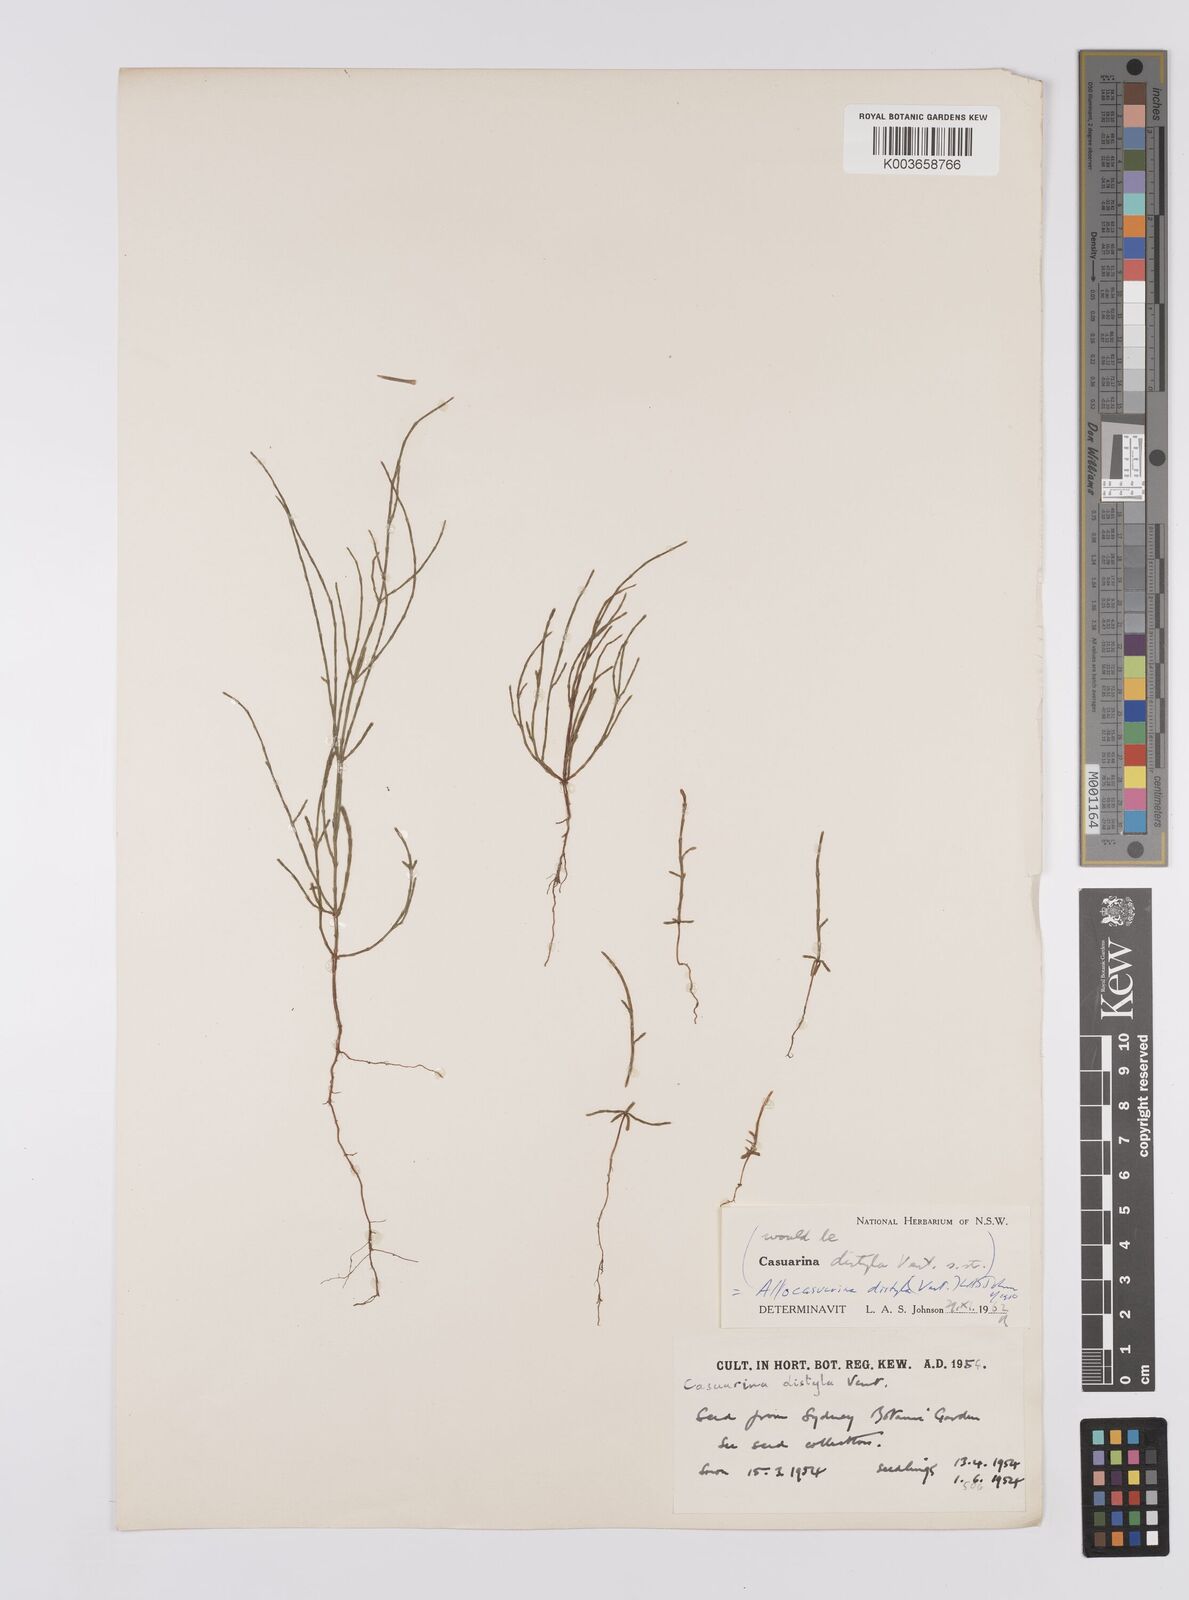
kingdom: Plantae
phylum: Tracheophyta
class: Magnoliopsida
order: Fagales
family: Casuarinaceae
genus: Allocasuarina
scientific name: Allocasuarina distyla
